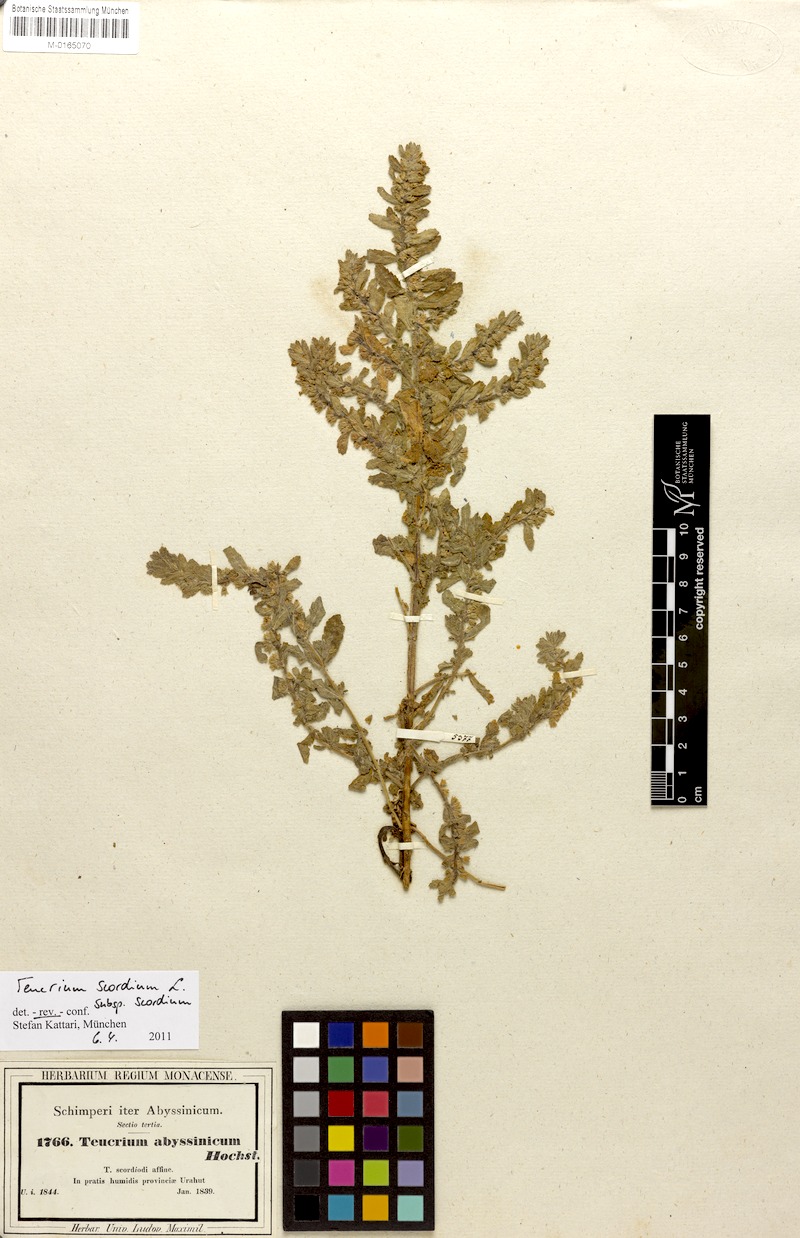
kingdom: Plantae
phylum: Tracheophyta
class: Magnoliopsida
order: Lamiales
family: Lamiaceae
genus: Teucrium
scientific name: Teucrium scordium
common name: Water germander
